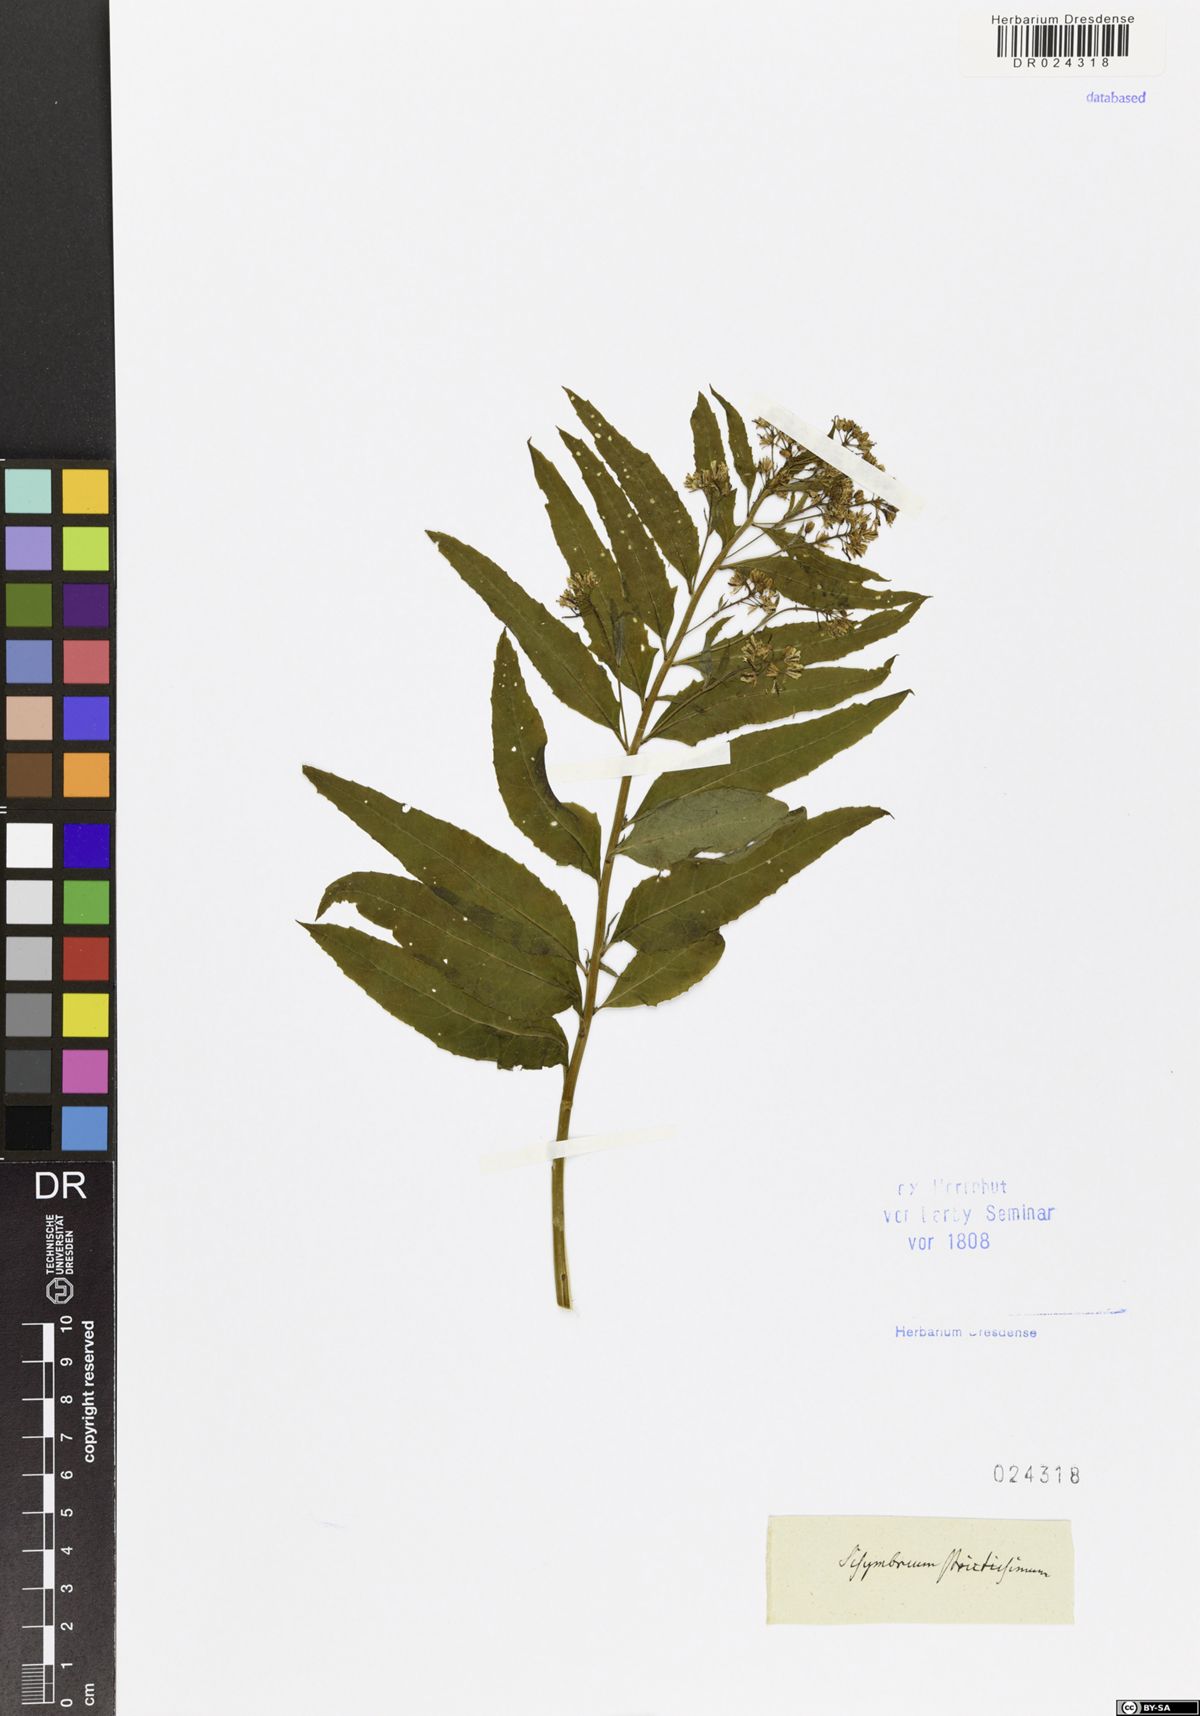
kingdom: Plantae
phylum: Tracheophyta
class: Magnoliopsida
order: Brassicales
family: Brassicaceae
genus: Sisymbrium
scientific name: Sisymbrium strictissimum
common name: Perennial rocket
